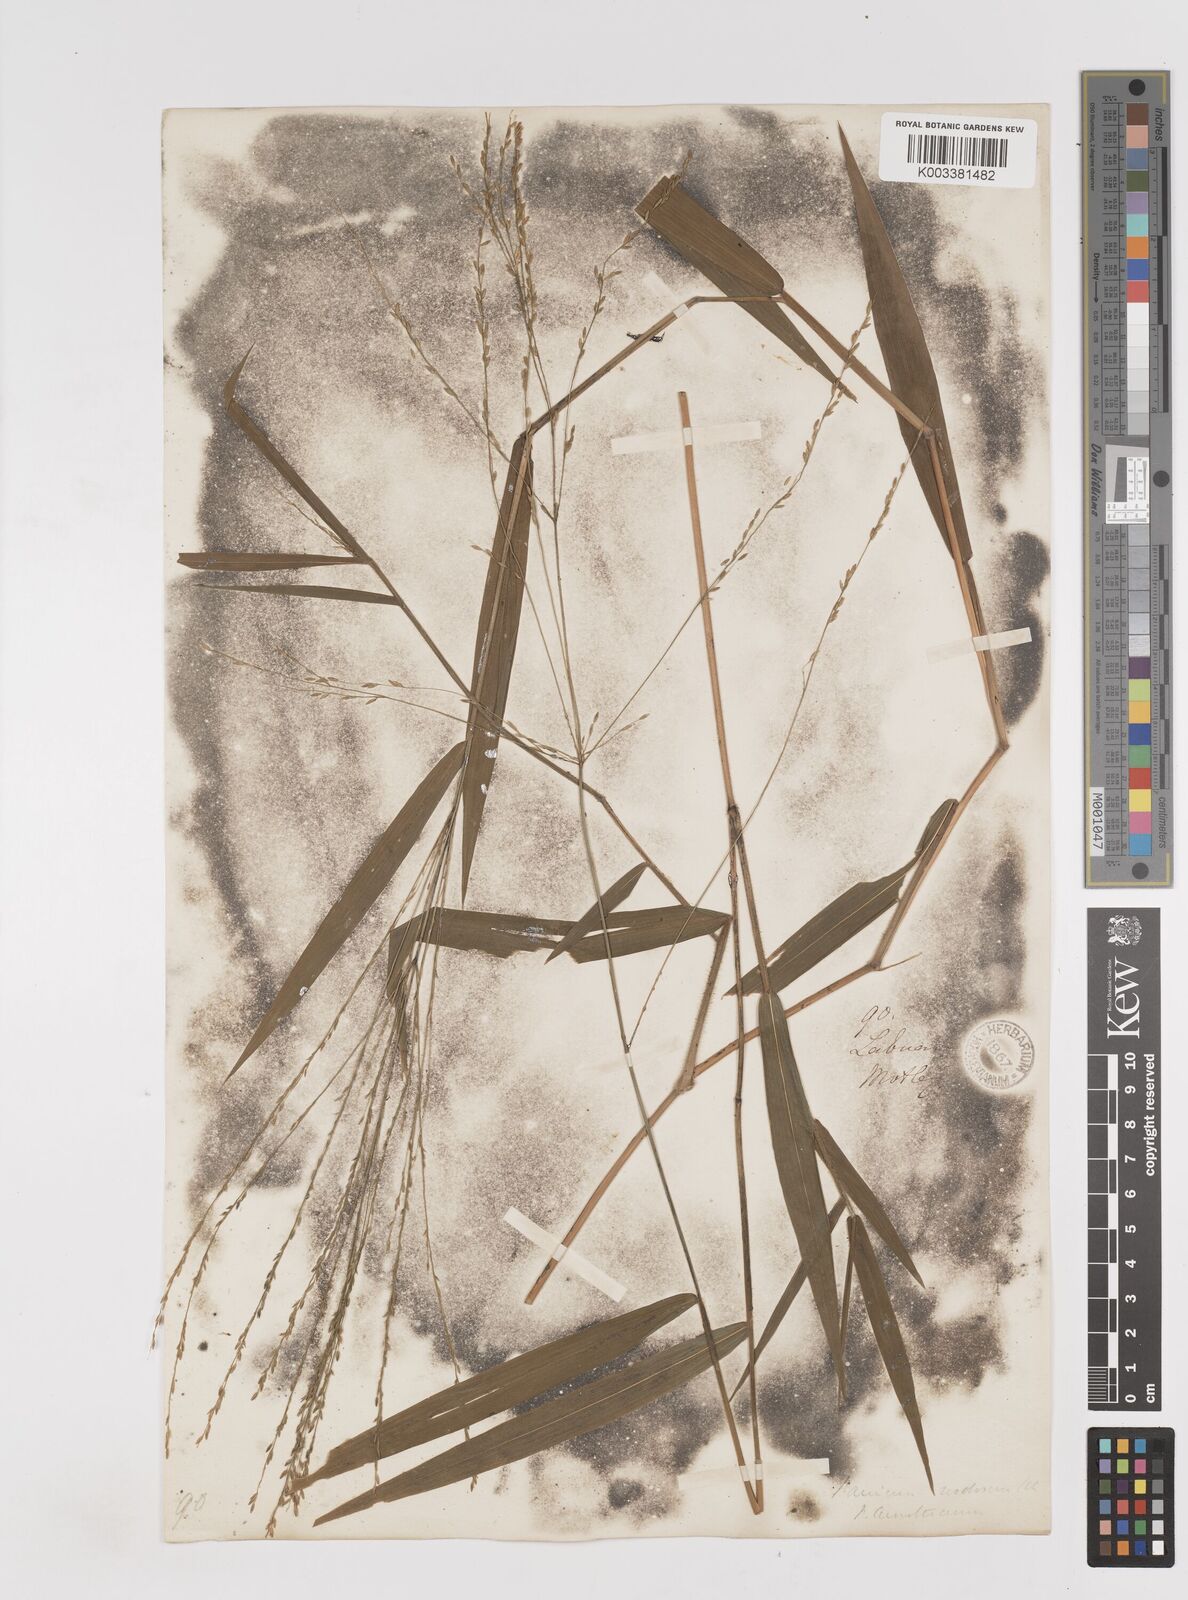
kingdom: Plantae
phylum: Tracheophyta
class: Liliopsida
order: Poales
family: Poaceae
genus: Ottochloa
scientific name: Ottochloa nodosa
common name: Slender-panic grass
